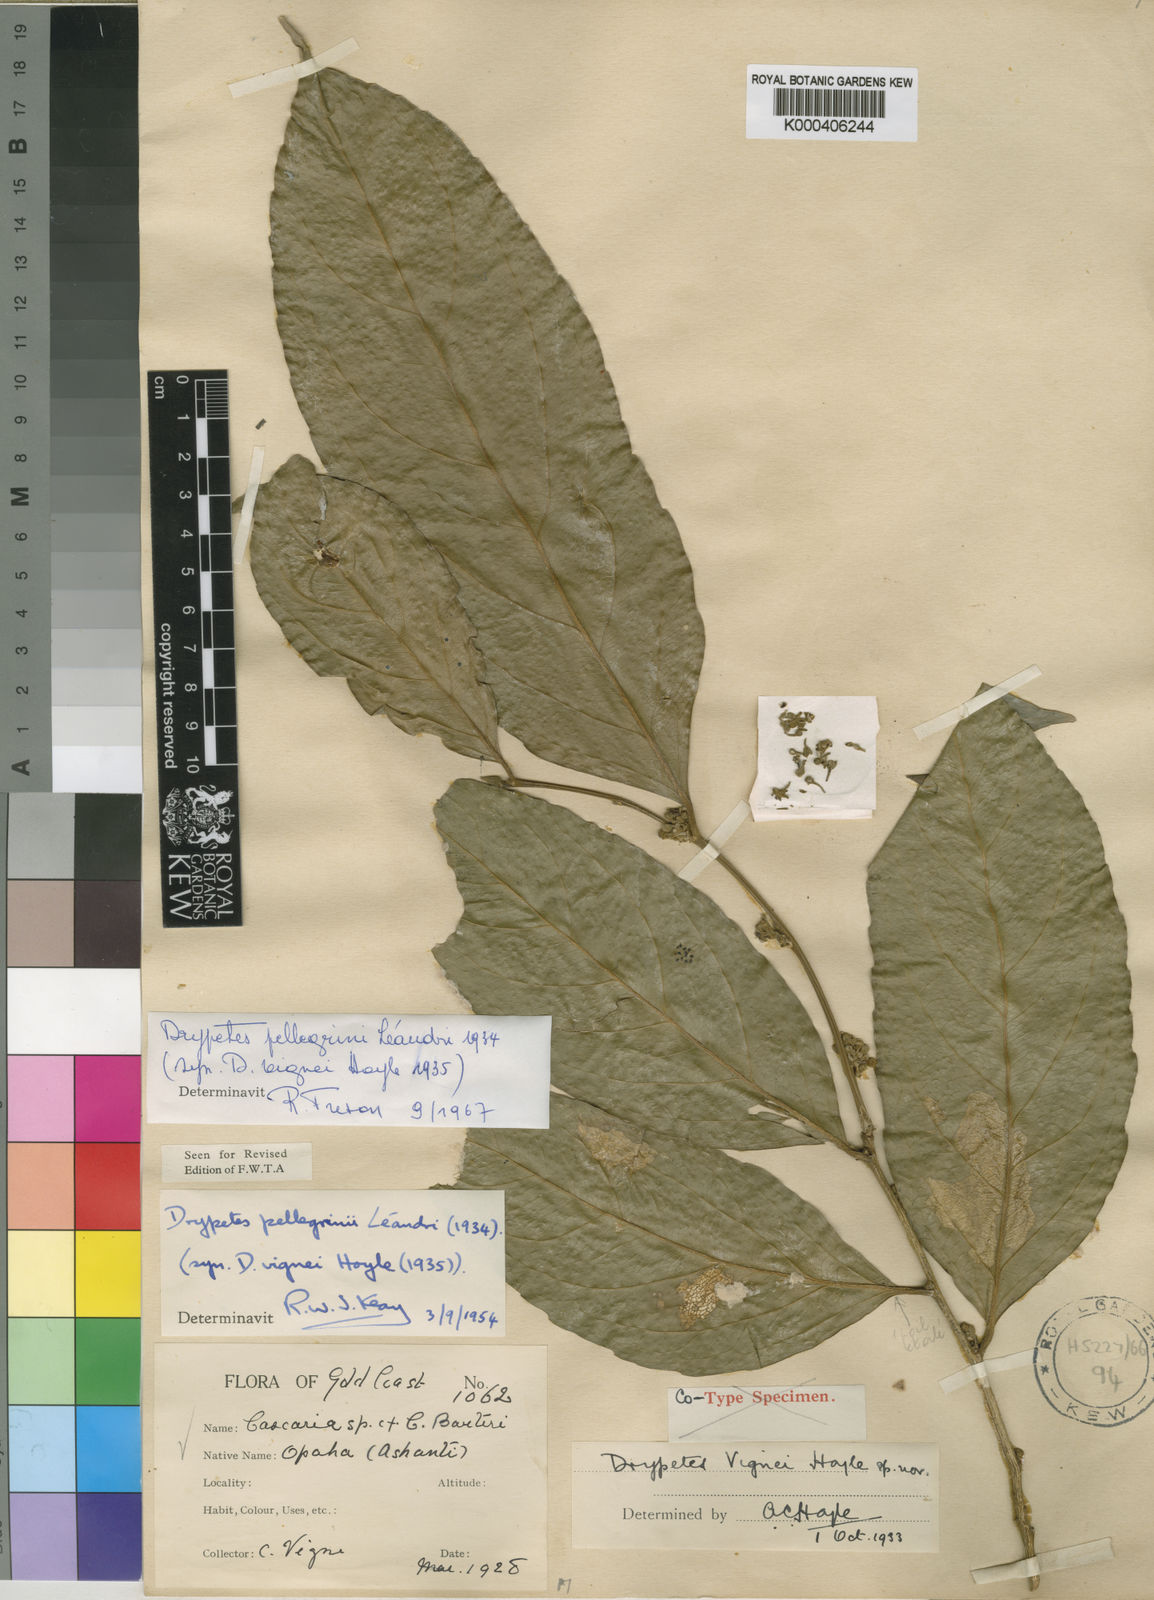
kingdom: Plantae
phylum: Tracheophyta
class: Magnoliopsida
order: Malpighiales
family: Putranjivaceae
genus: Drypetes
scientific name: Drypetes pellegrinii
